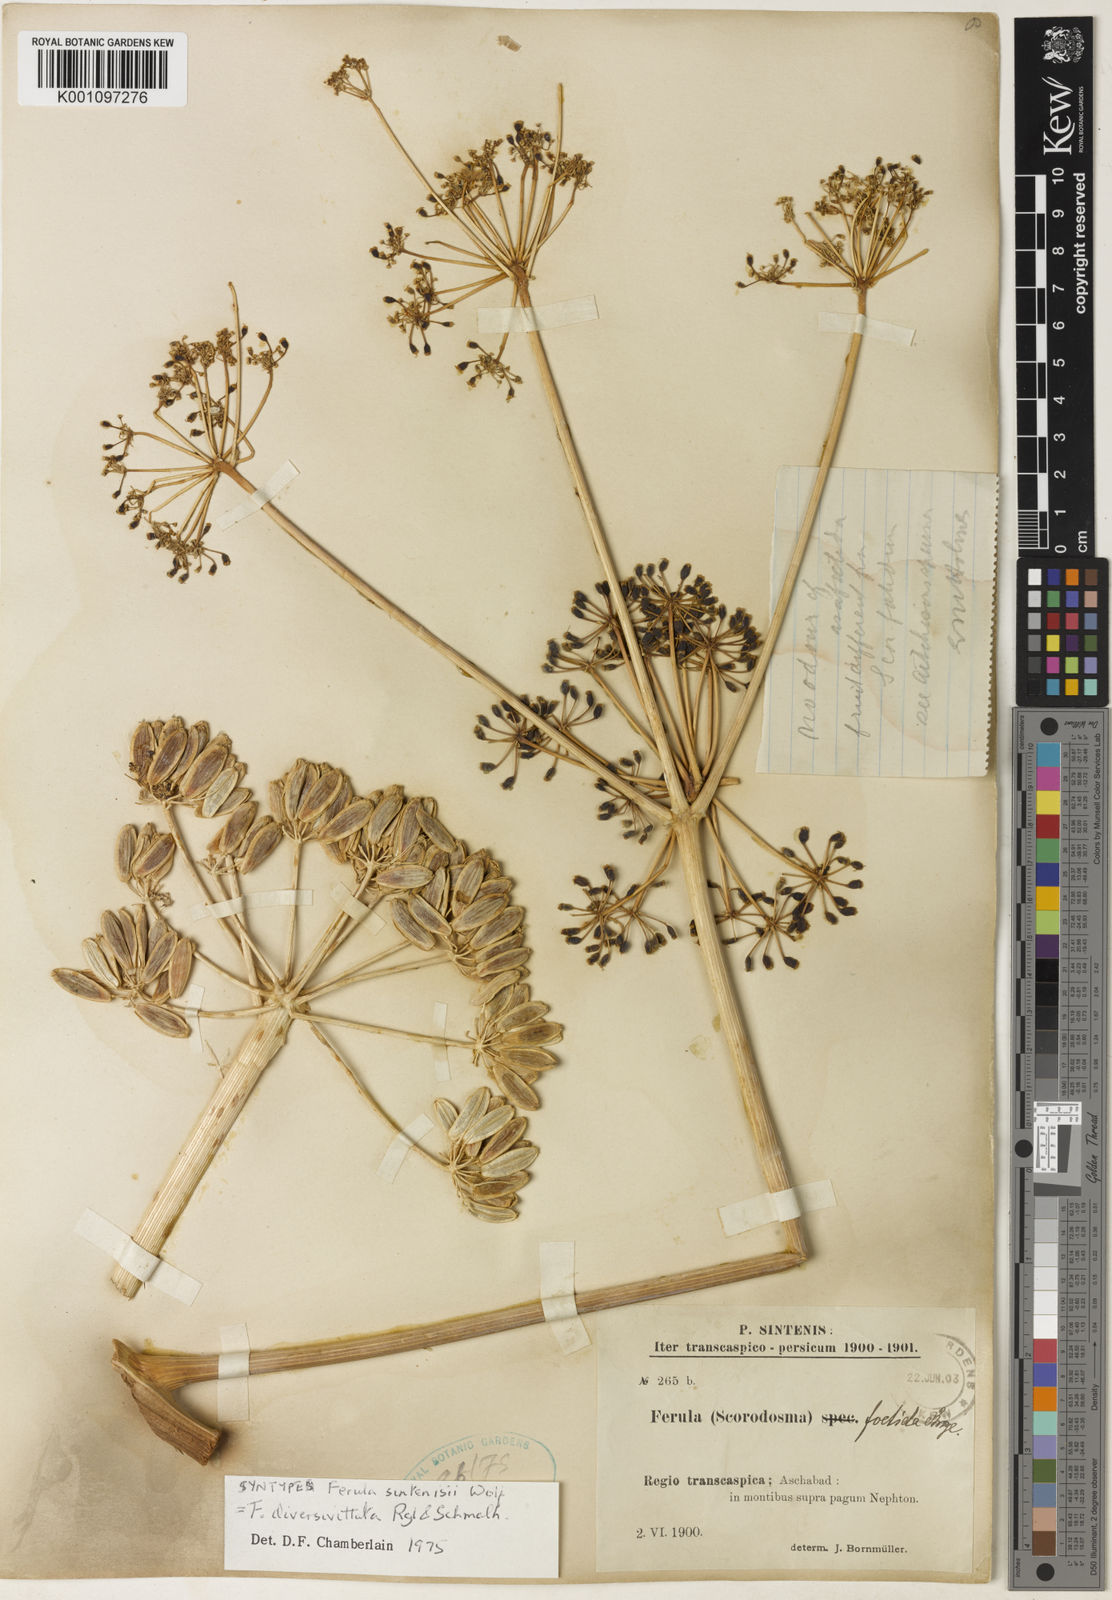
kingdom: Plantae
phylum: Tracheophyta
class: Magnoliopsida
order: Apiales
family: Apiaceae
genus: Ferula
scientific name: Ferula diversivittata
